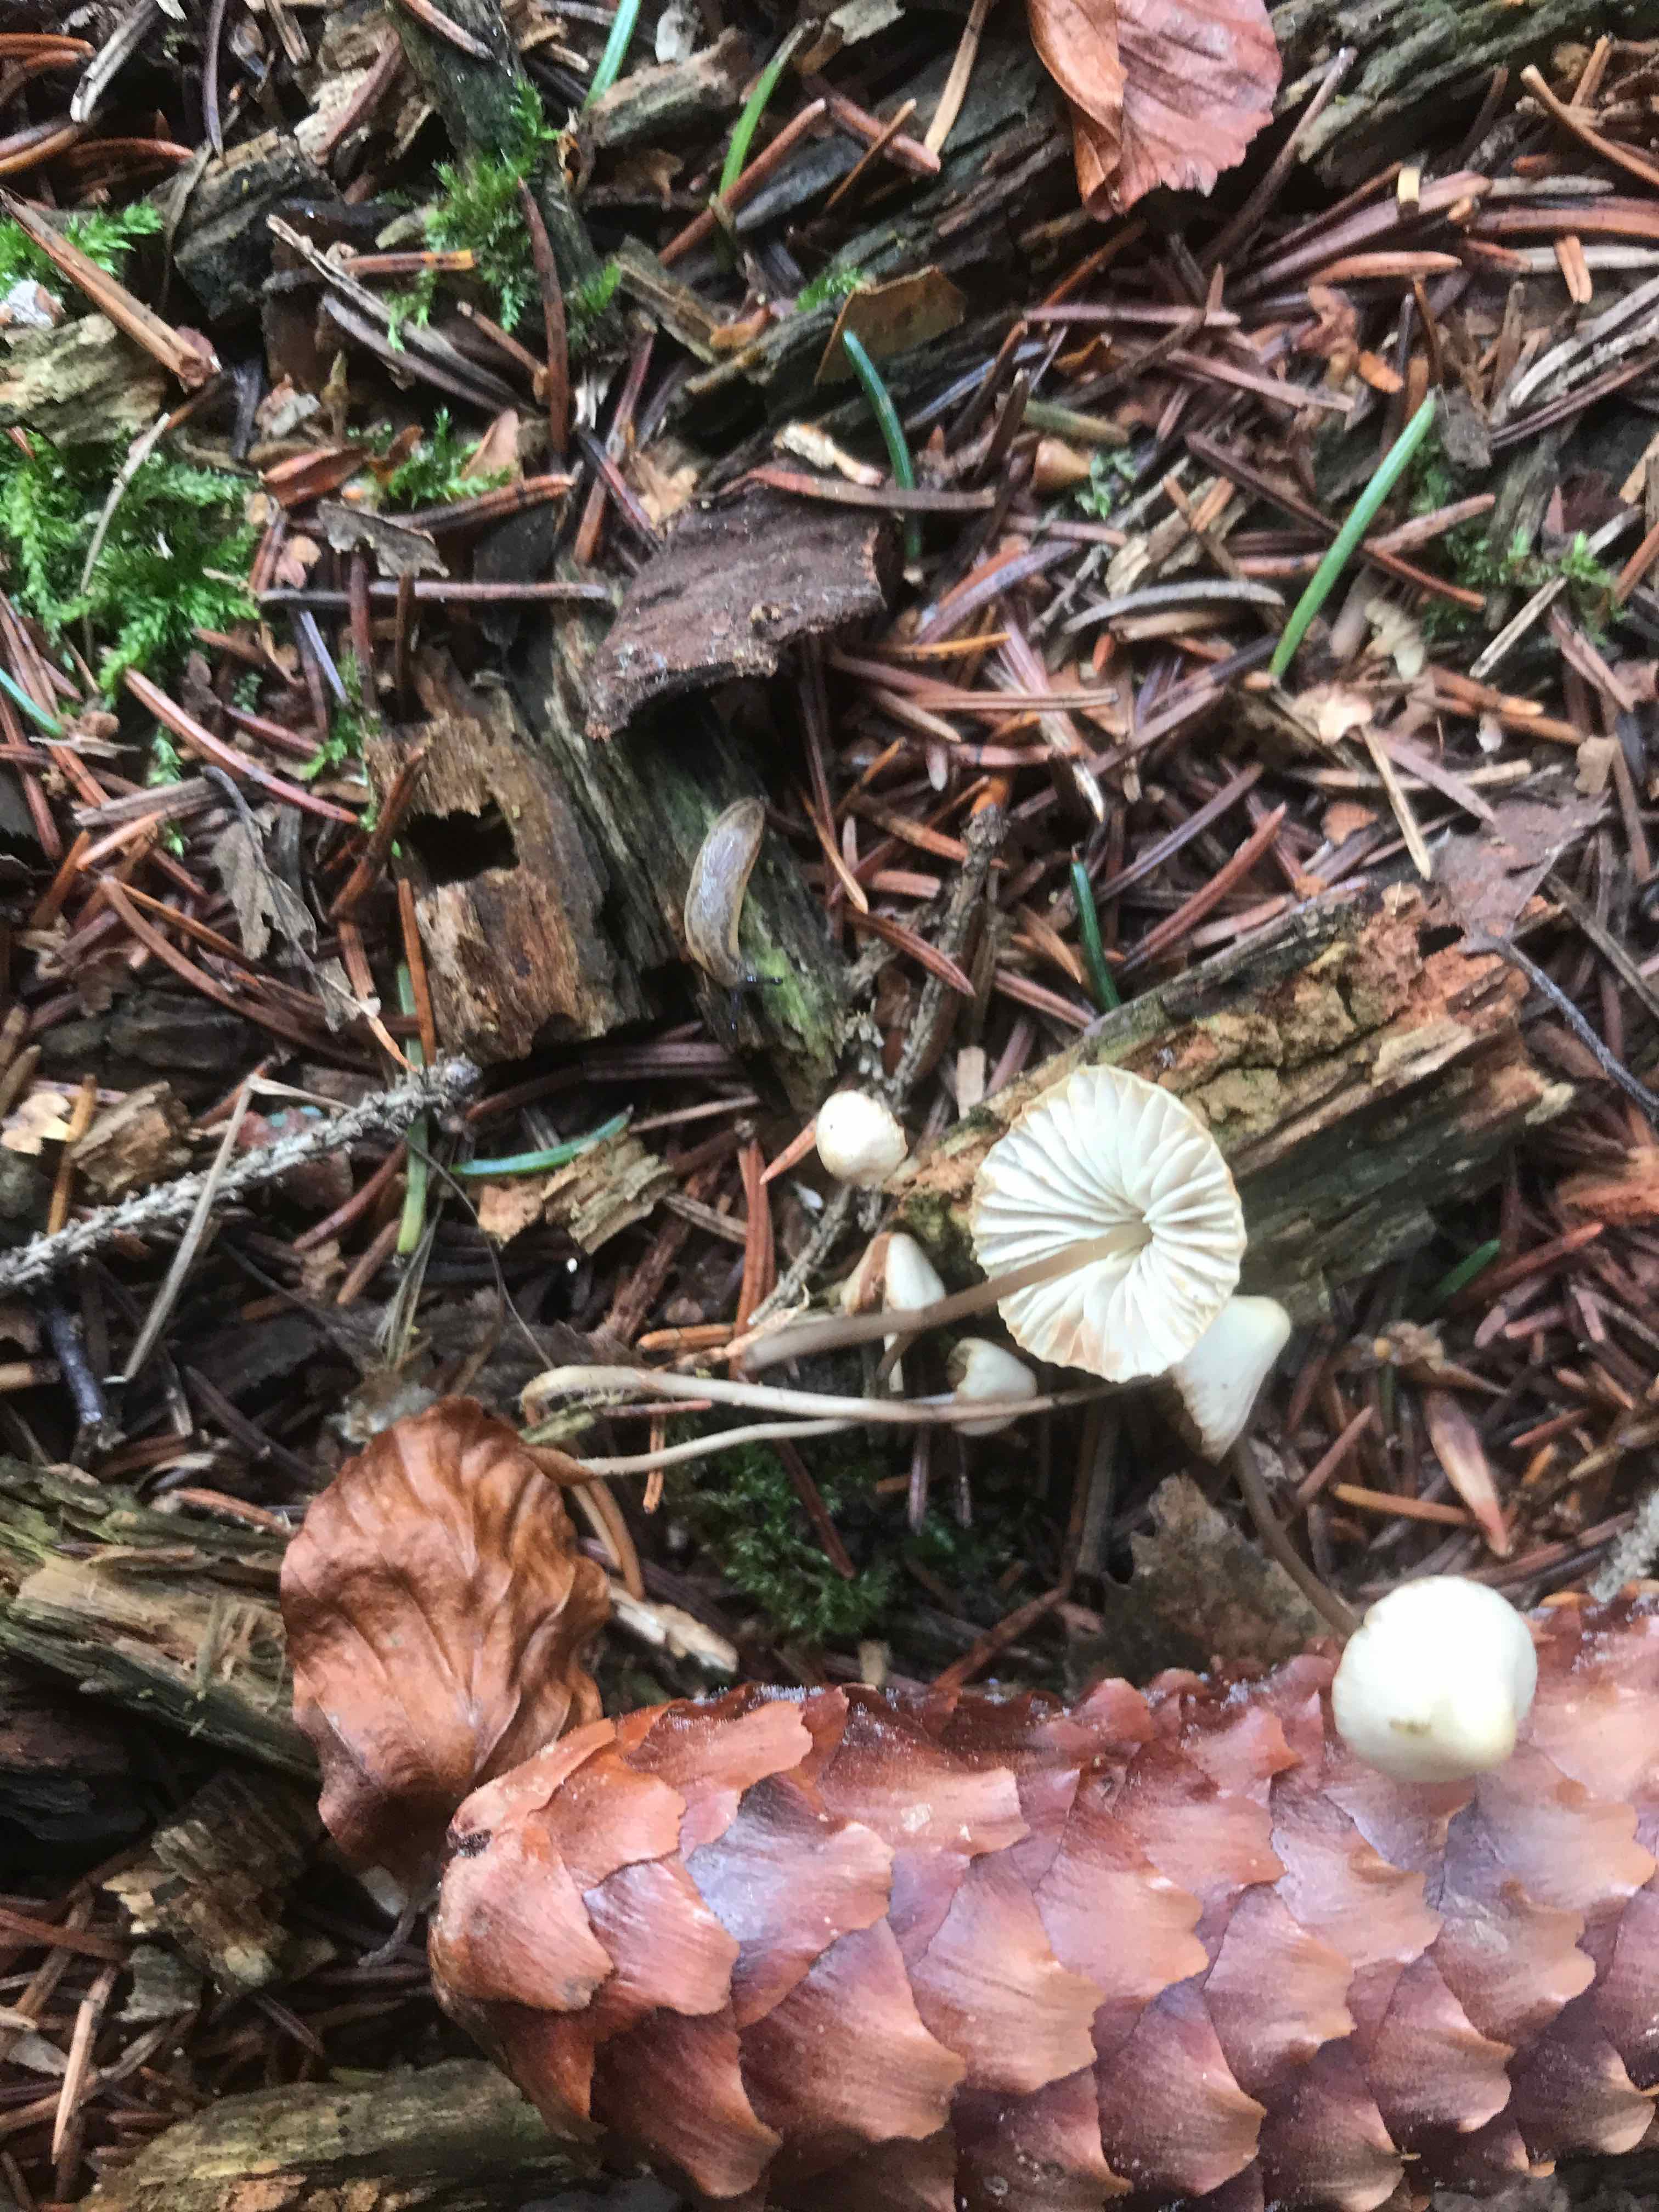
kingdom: Fungi
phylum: Basidiomycota
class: Agaricomycetes
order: Agaricales
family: Mycenaceae
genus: Mycena
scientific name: Mycena
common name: huesvamp
